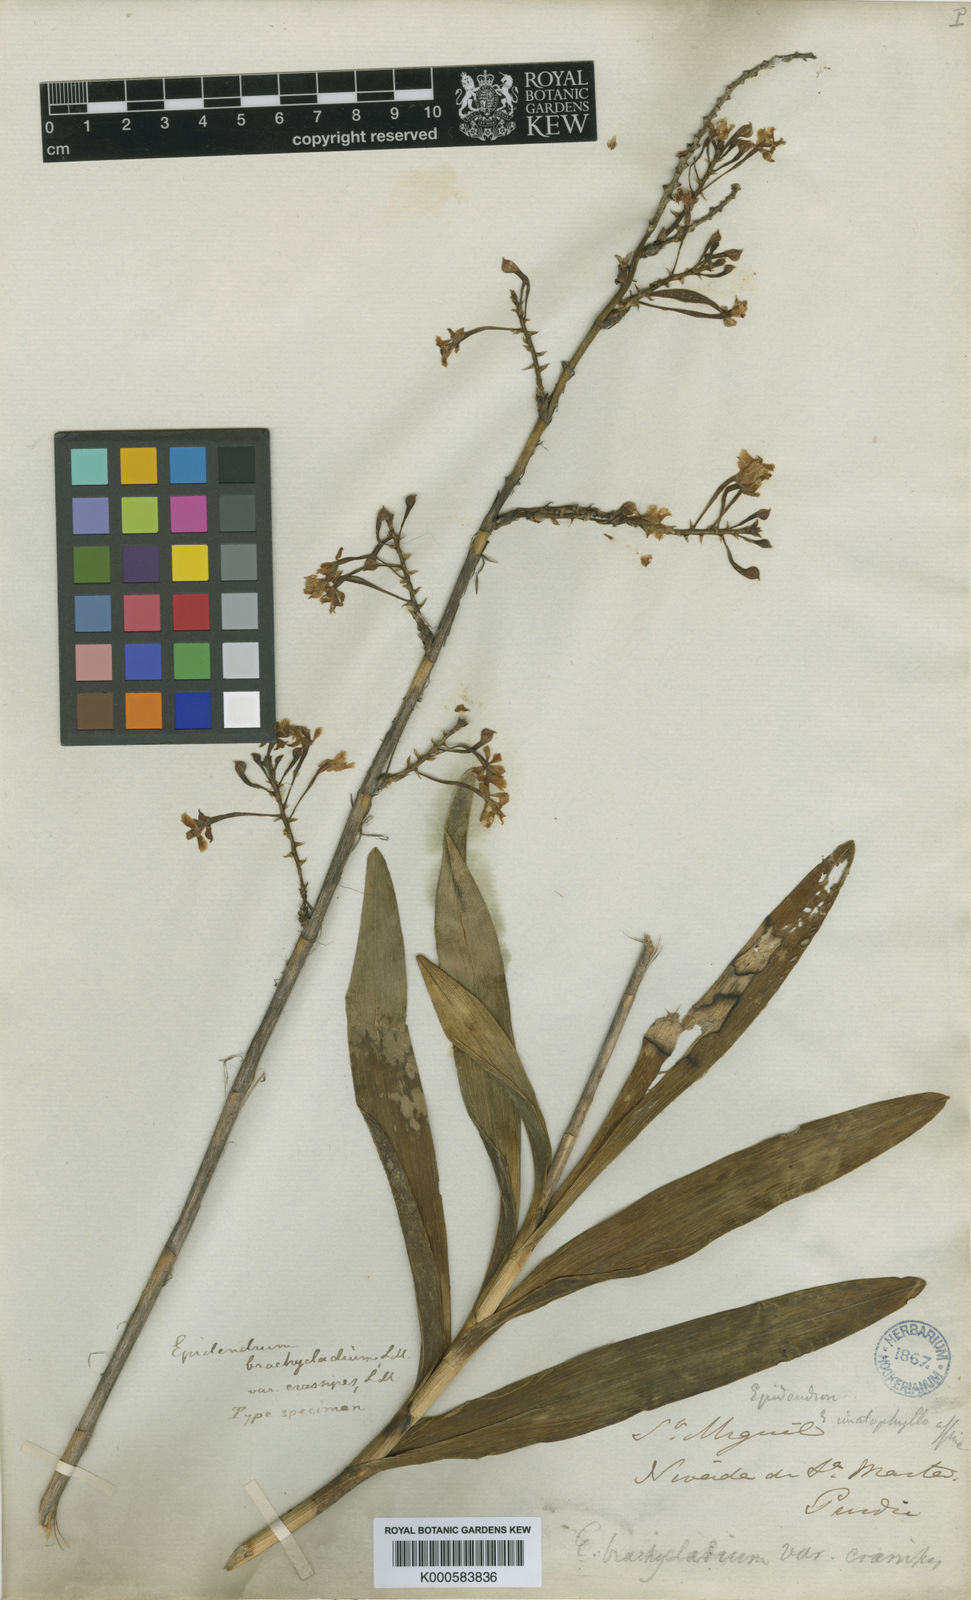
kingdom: Plantae
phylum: Tracheophyta
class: Liliopsida
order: Asparagales
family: Orchidaceae
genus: Epidendrum
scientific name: Epidendrum blepharistes
